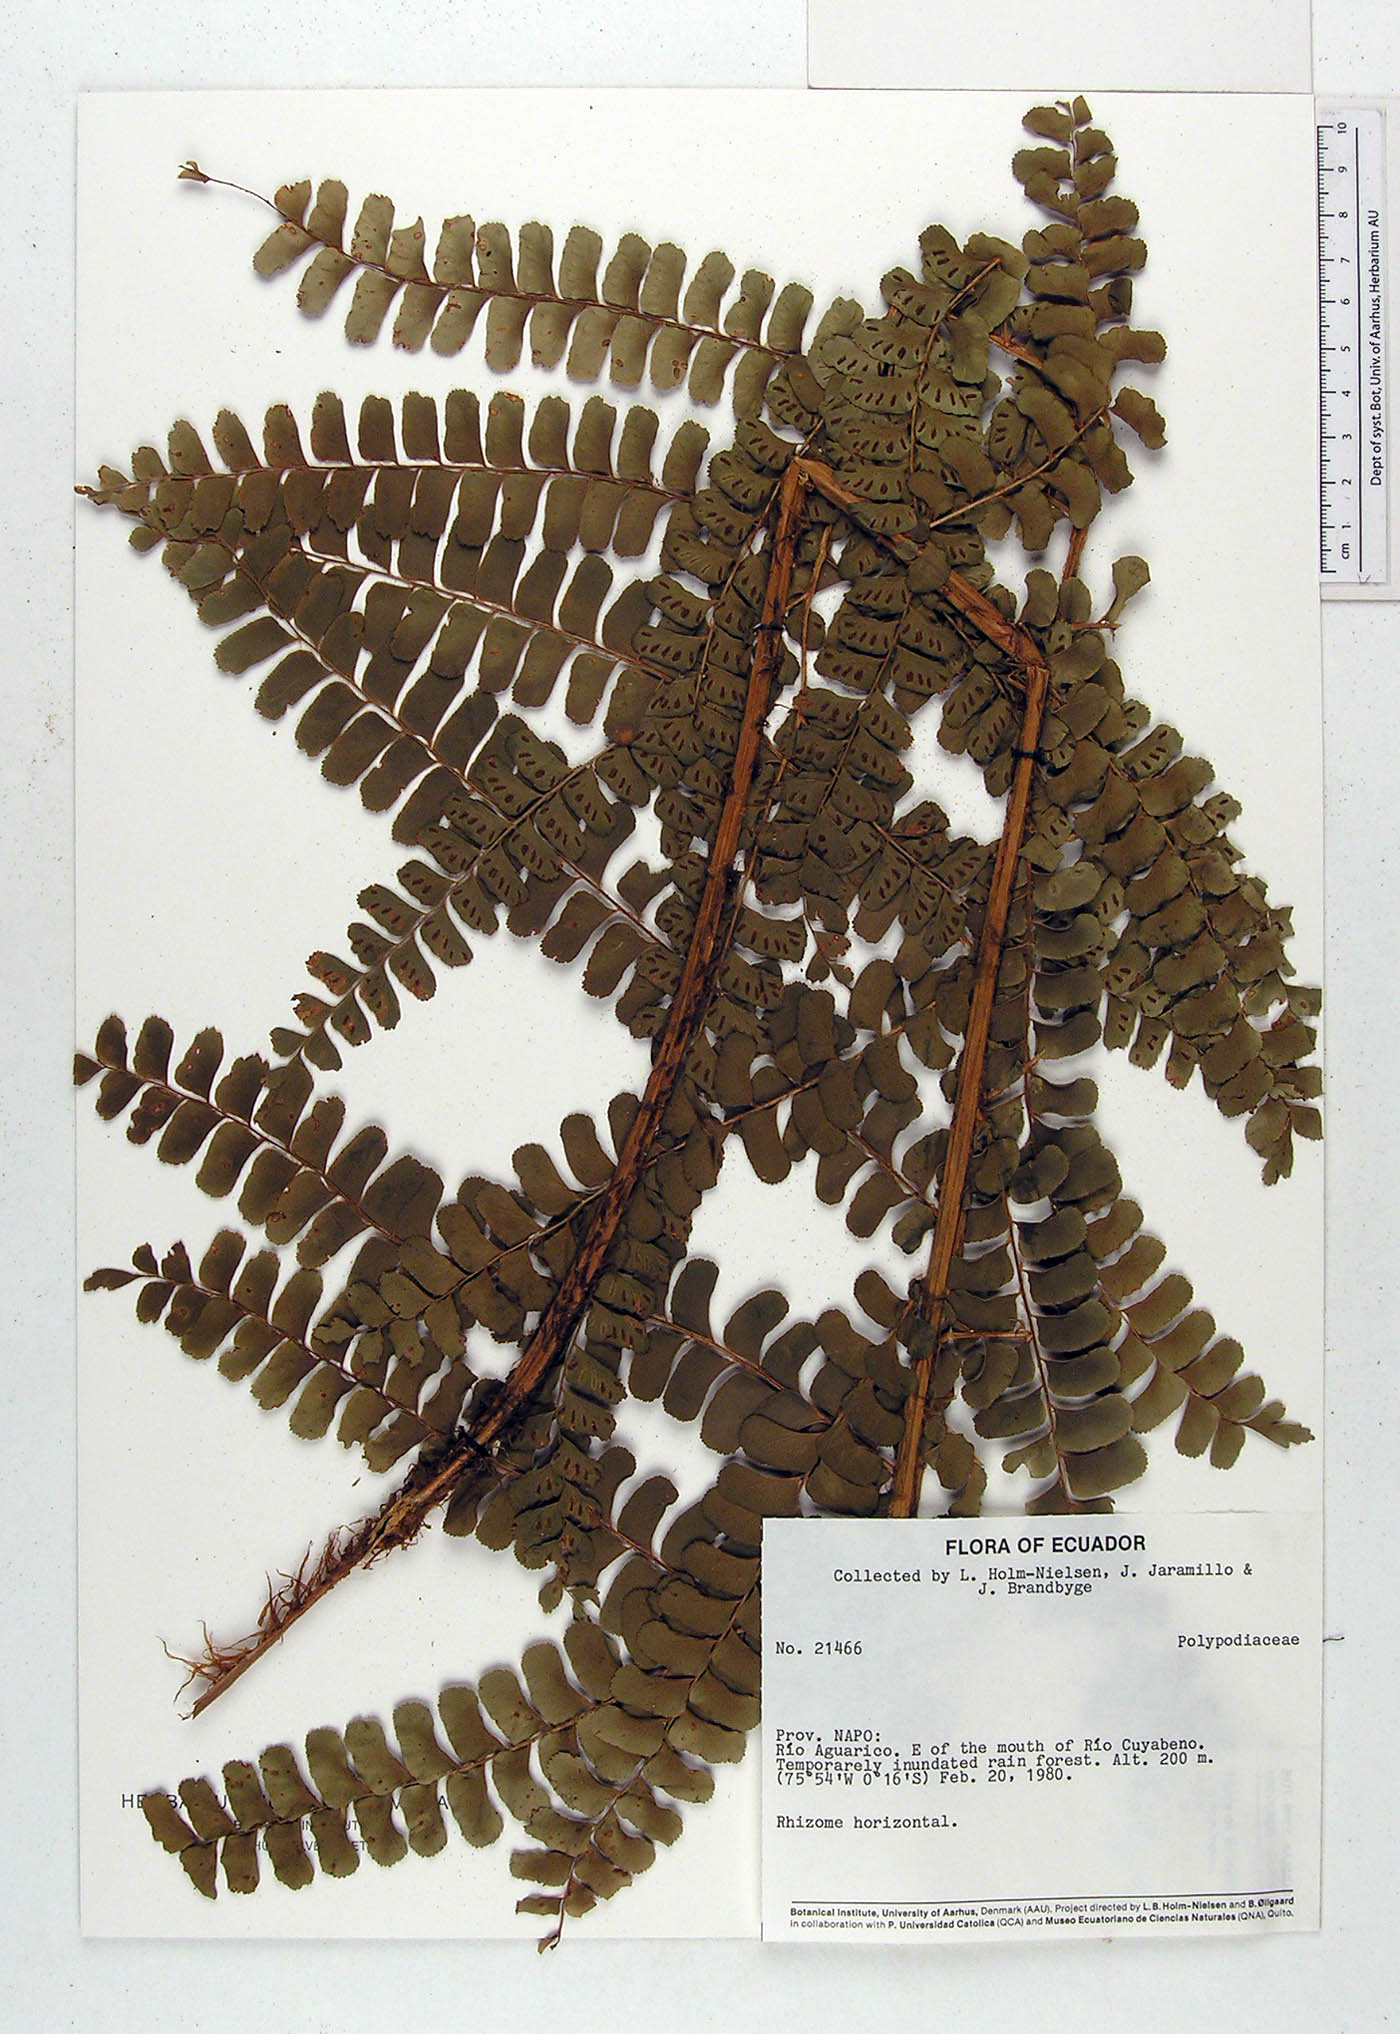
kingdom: Plantae
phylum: Tracheophyta
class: Polypodiopsida
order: Polypodiales
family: Didymochlaenaceae
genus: Didymochlaena
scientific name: Didymochlaena truncatula
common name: Mahogany fern
